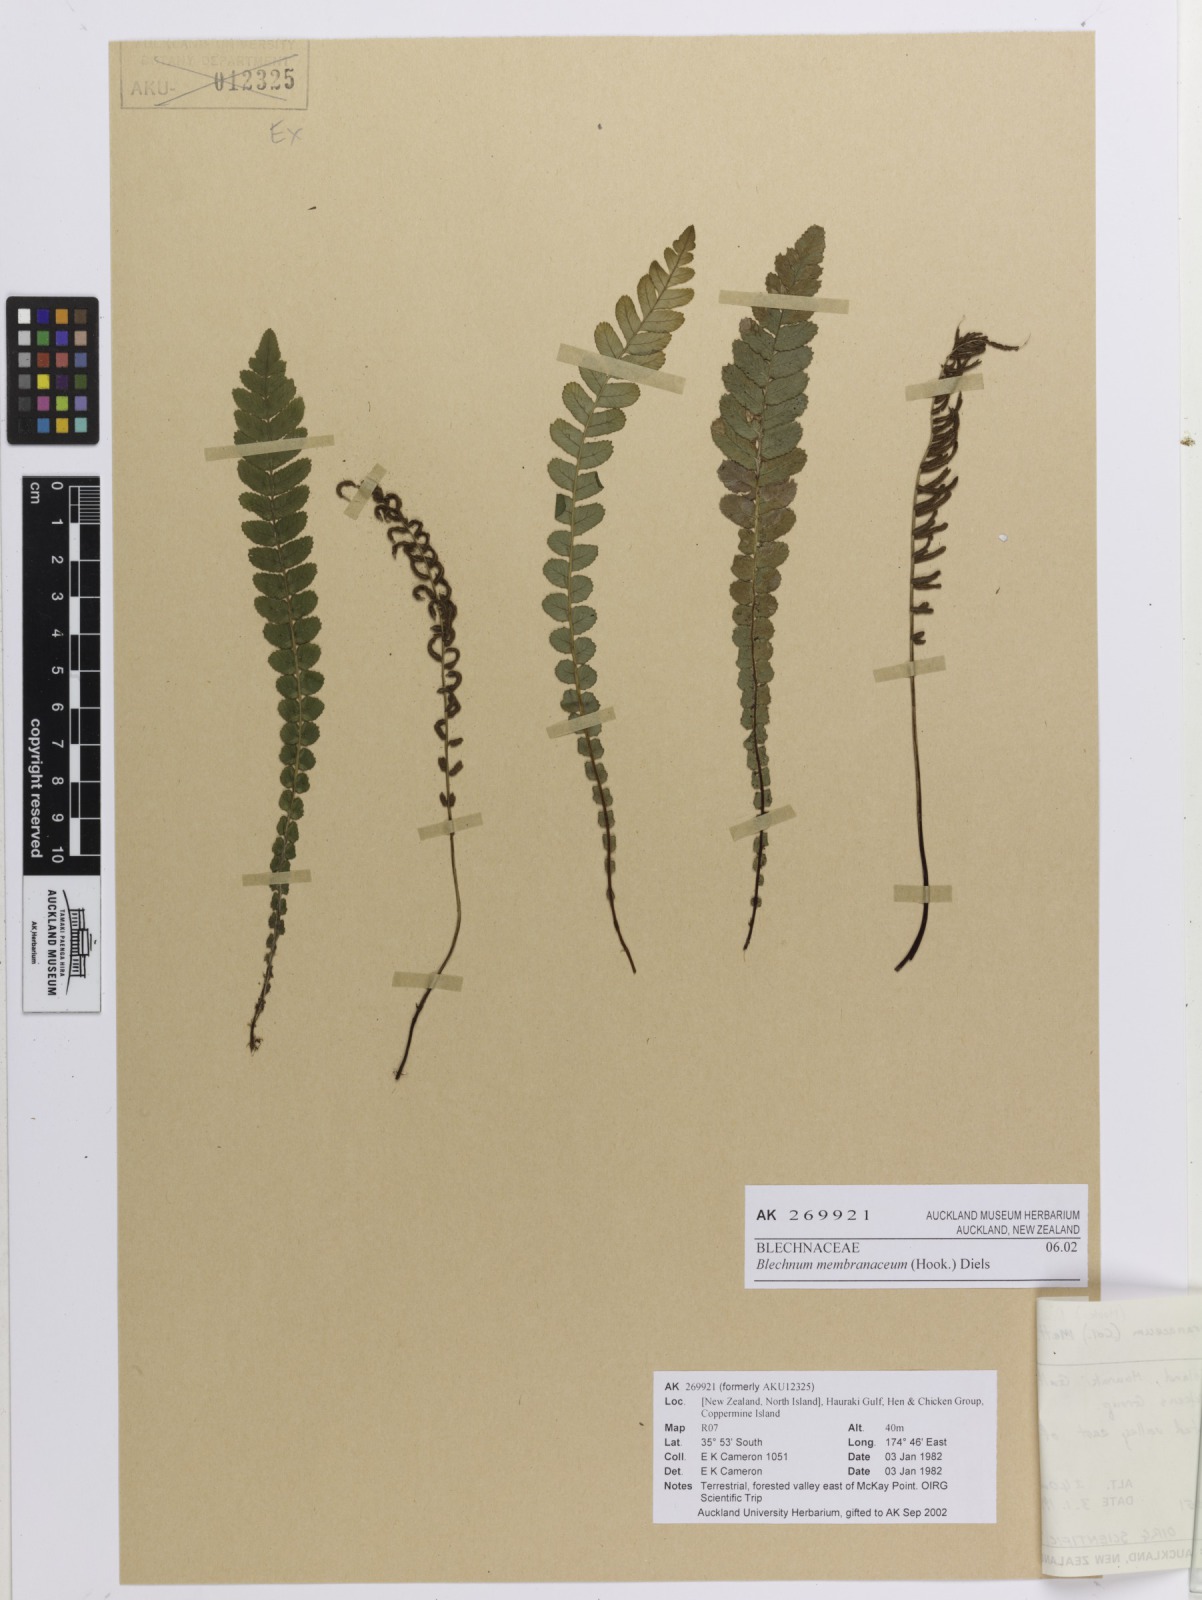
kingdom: Plantae
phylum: Tracheophyta
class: Polypodiopsida
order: Polypodiales
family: Blechnaceae
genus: Austroblechnum
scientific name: Austroblechnum membranaceum
